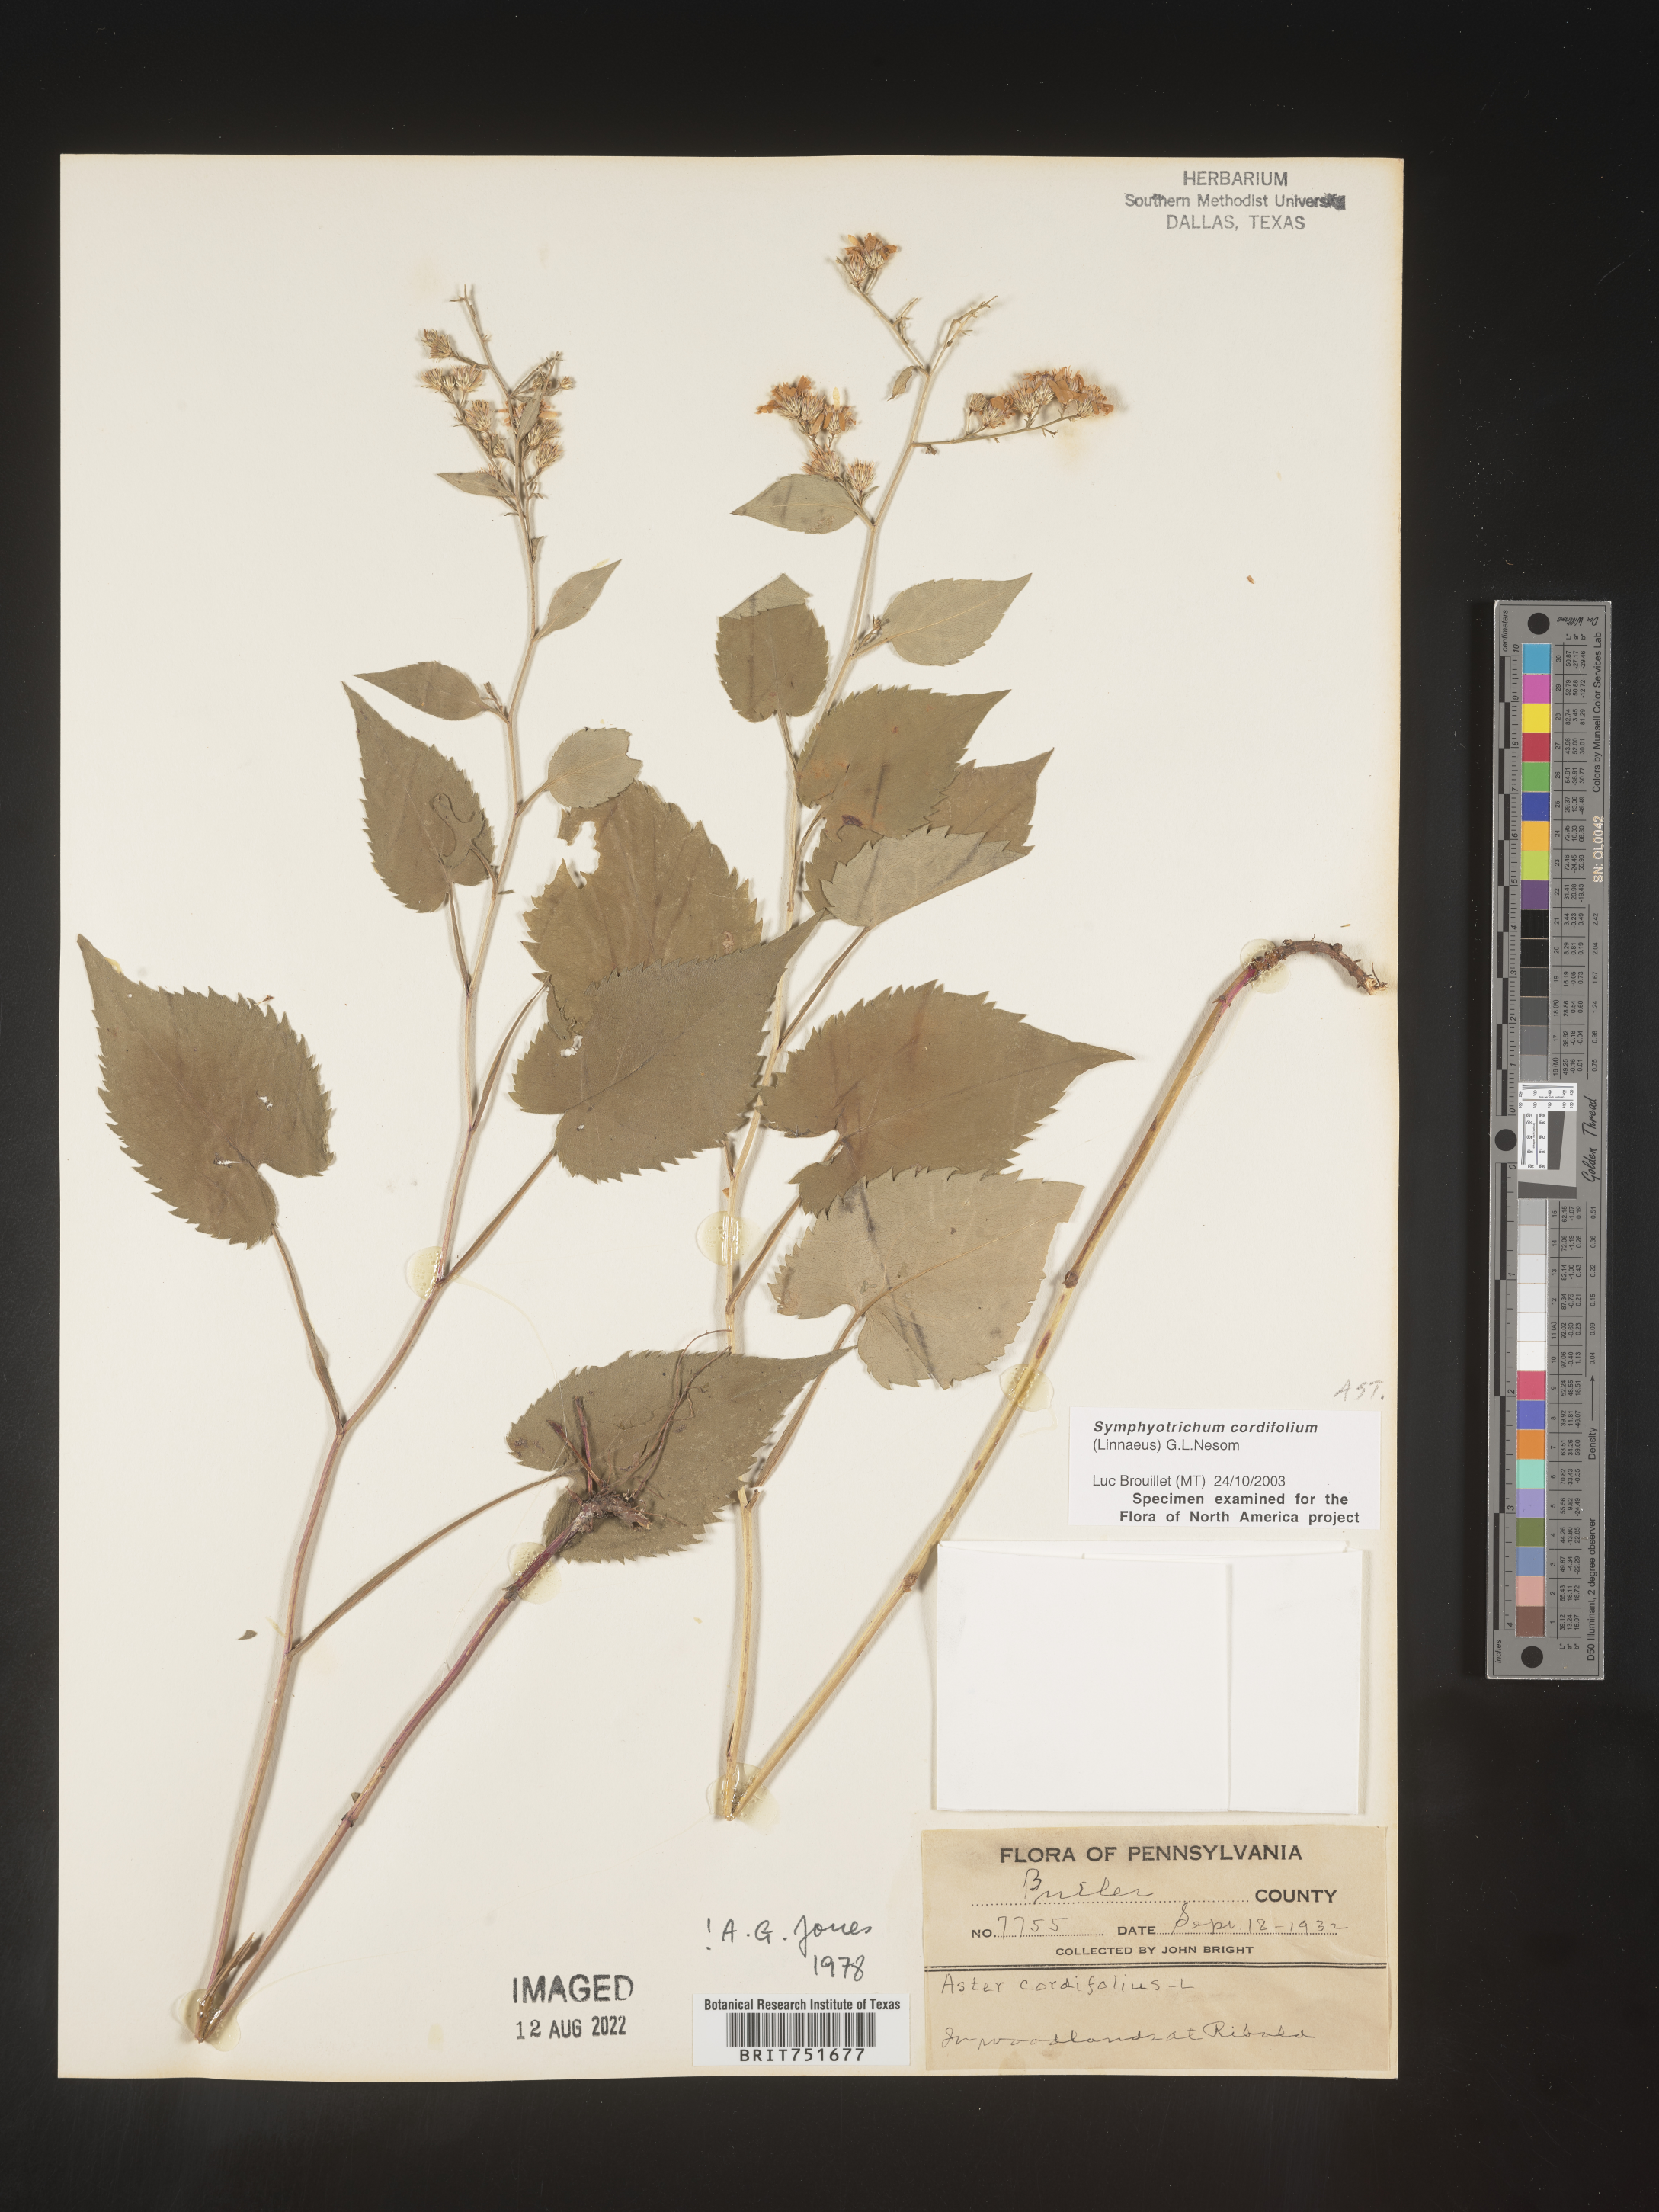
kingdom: Plantae
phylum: Tracheophyta
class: Magnoliopsida
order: Asterales
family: Asteraceae
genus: Symphyotrichum
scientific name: Symphyotrichum cordifolium
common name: Beeweed
